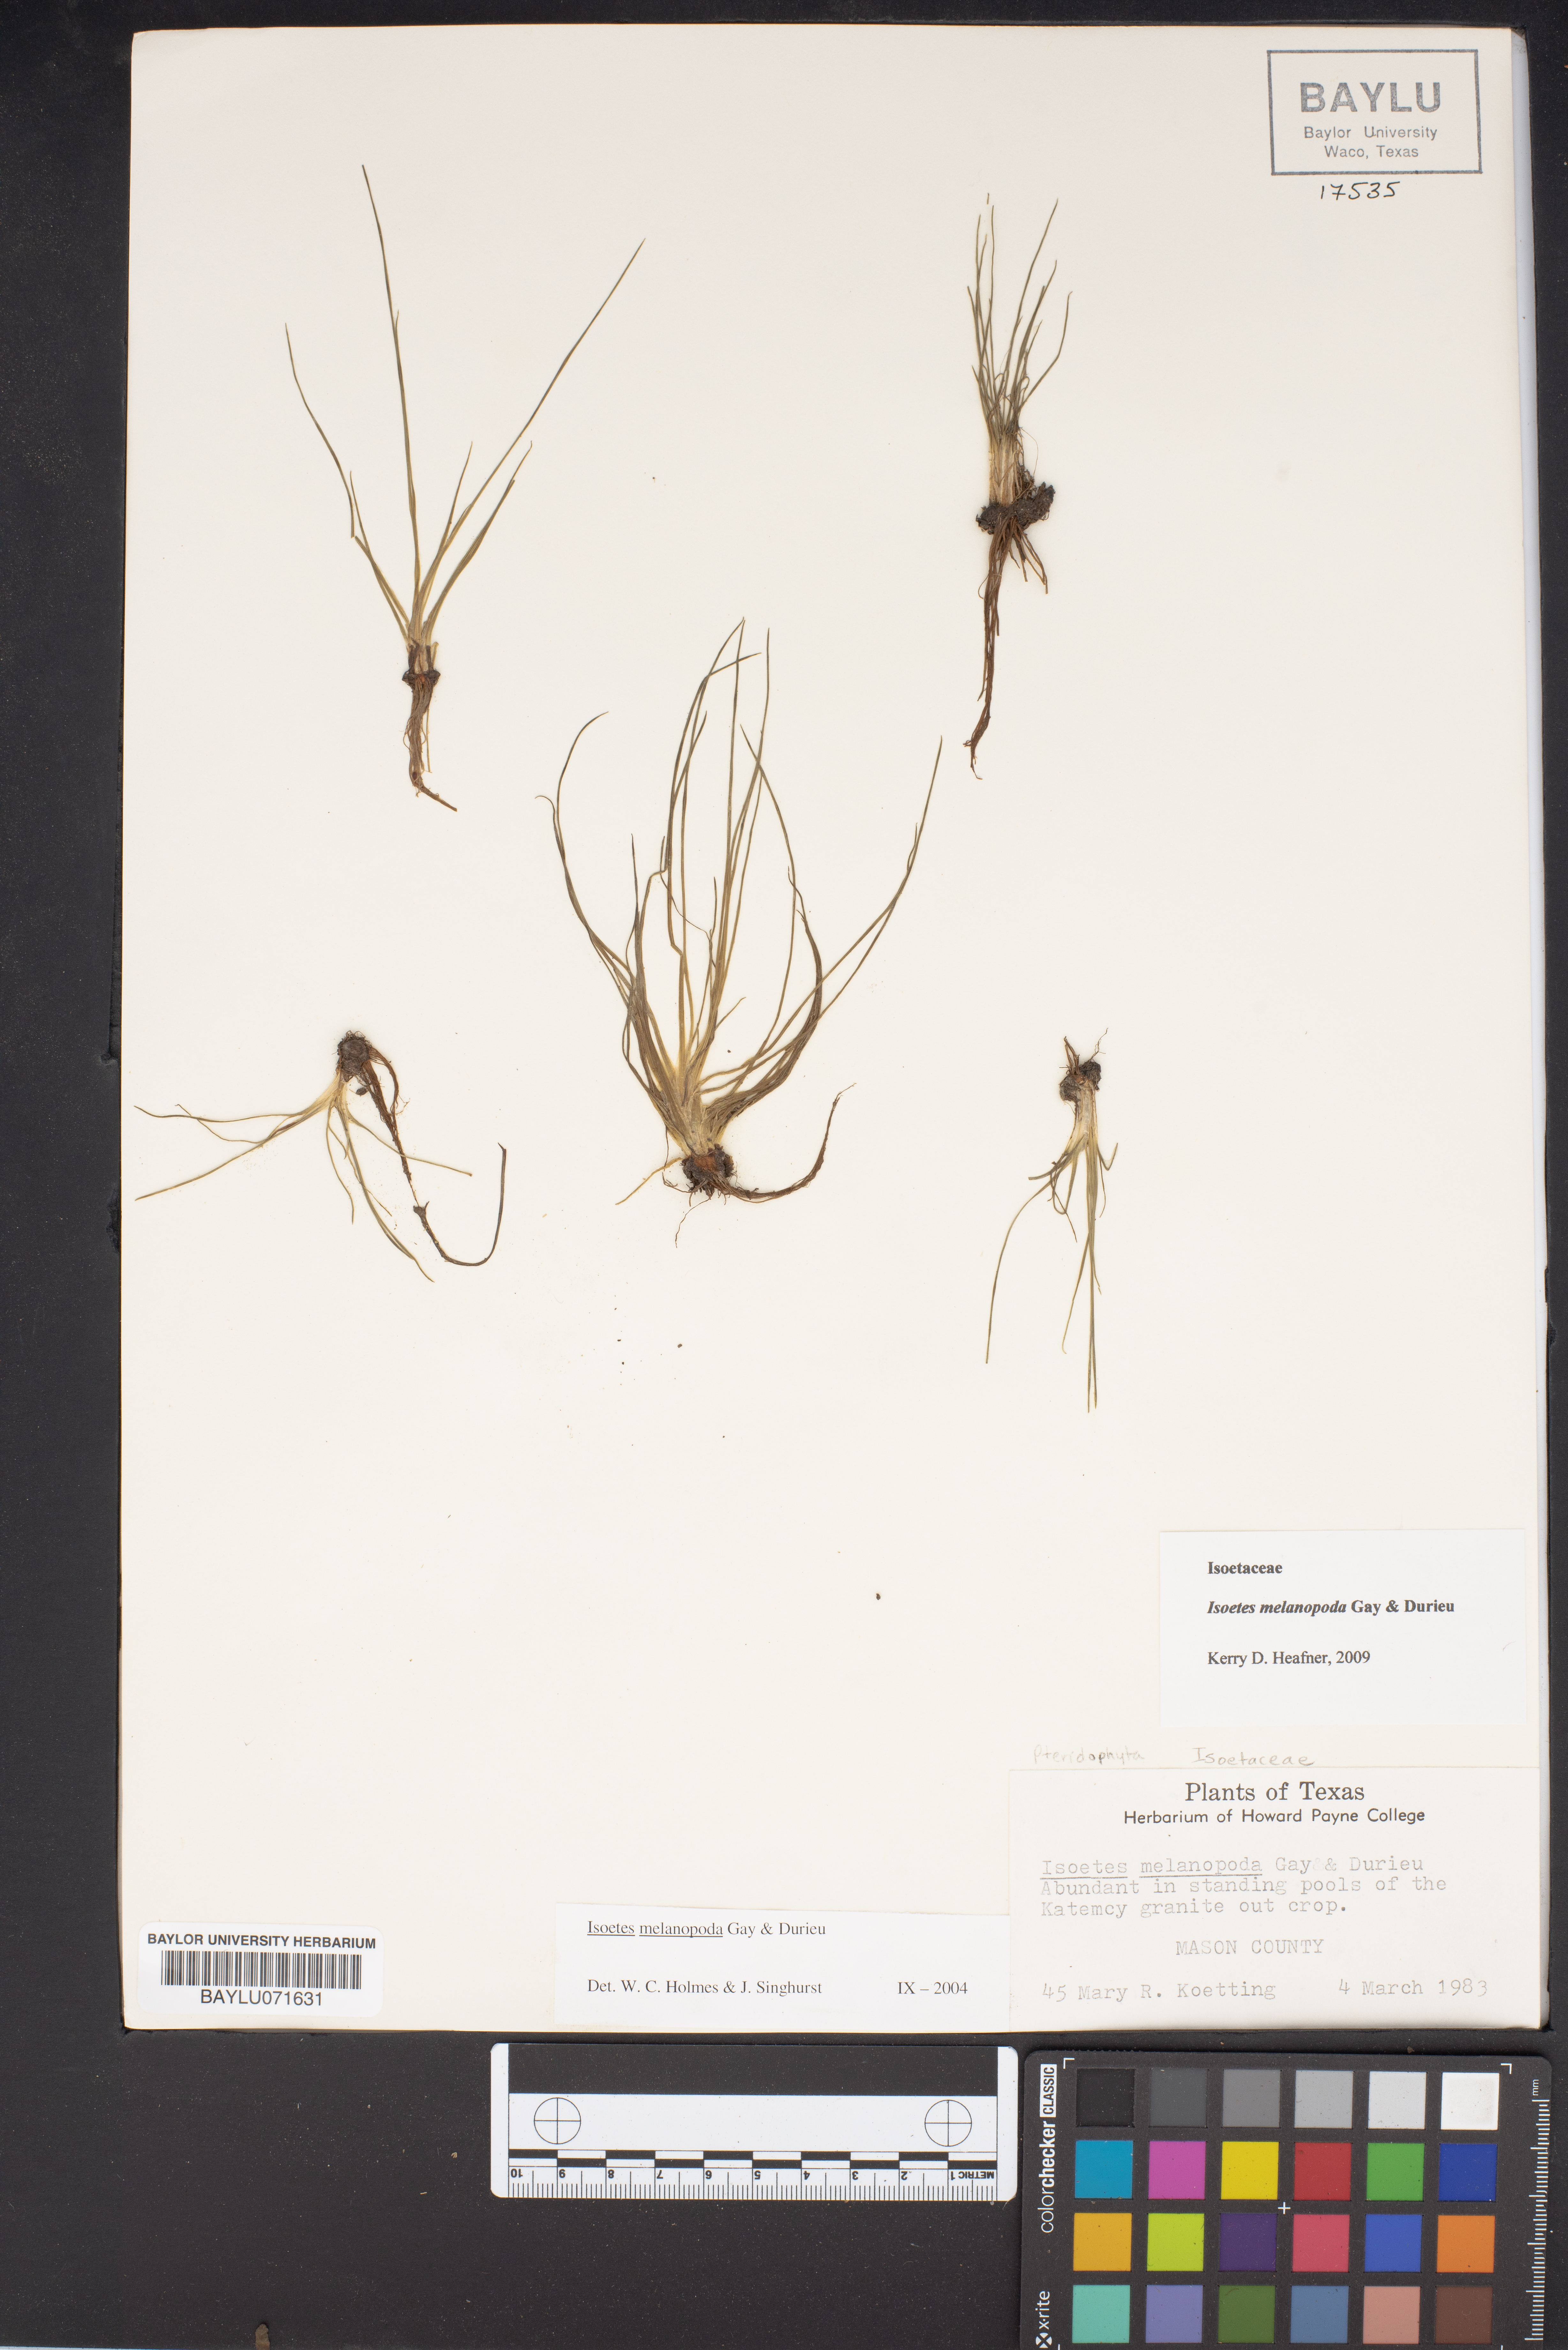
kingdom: Plantae
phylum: Tracheophyta
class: Lycopodiopsida
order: Isoetales
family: Isoetaceae
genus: Isoetes
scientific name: Isoetes melanopoda
